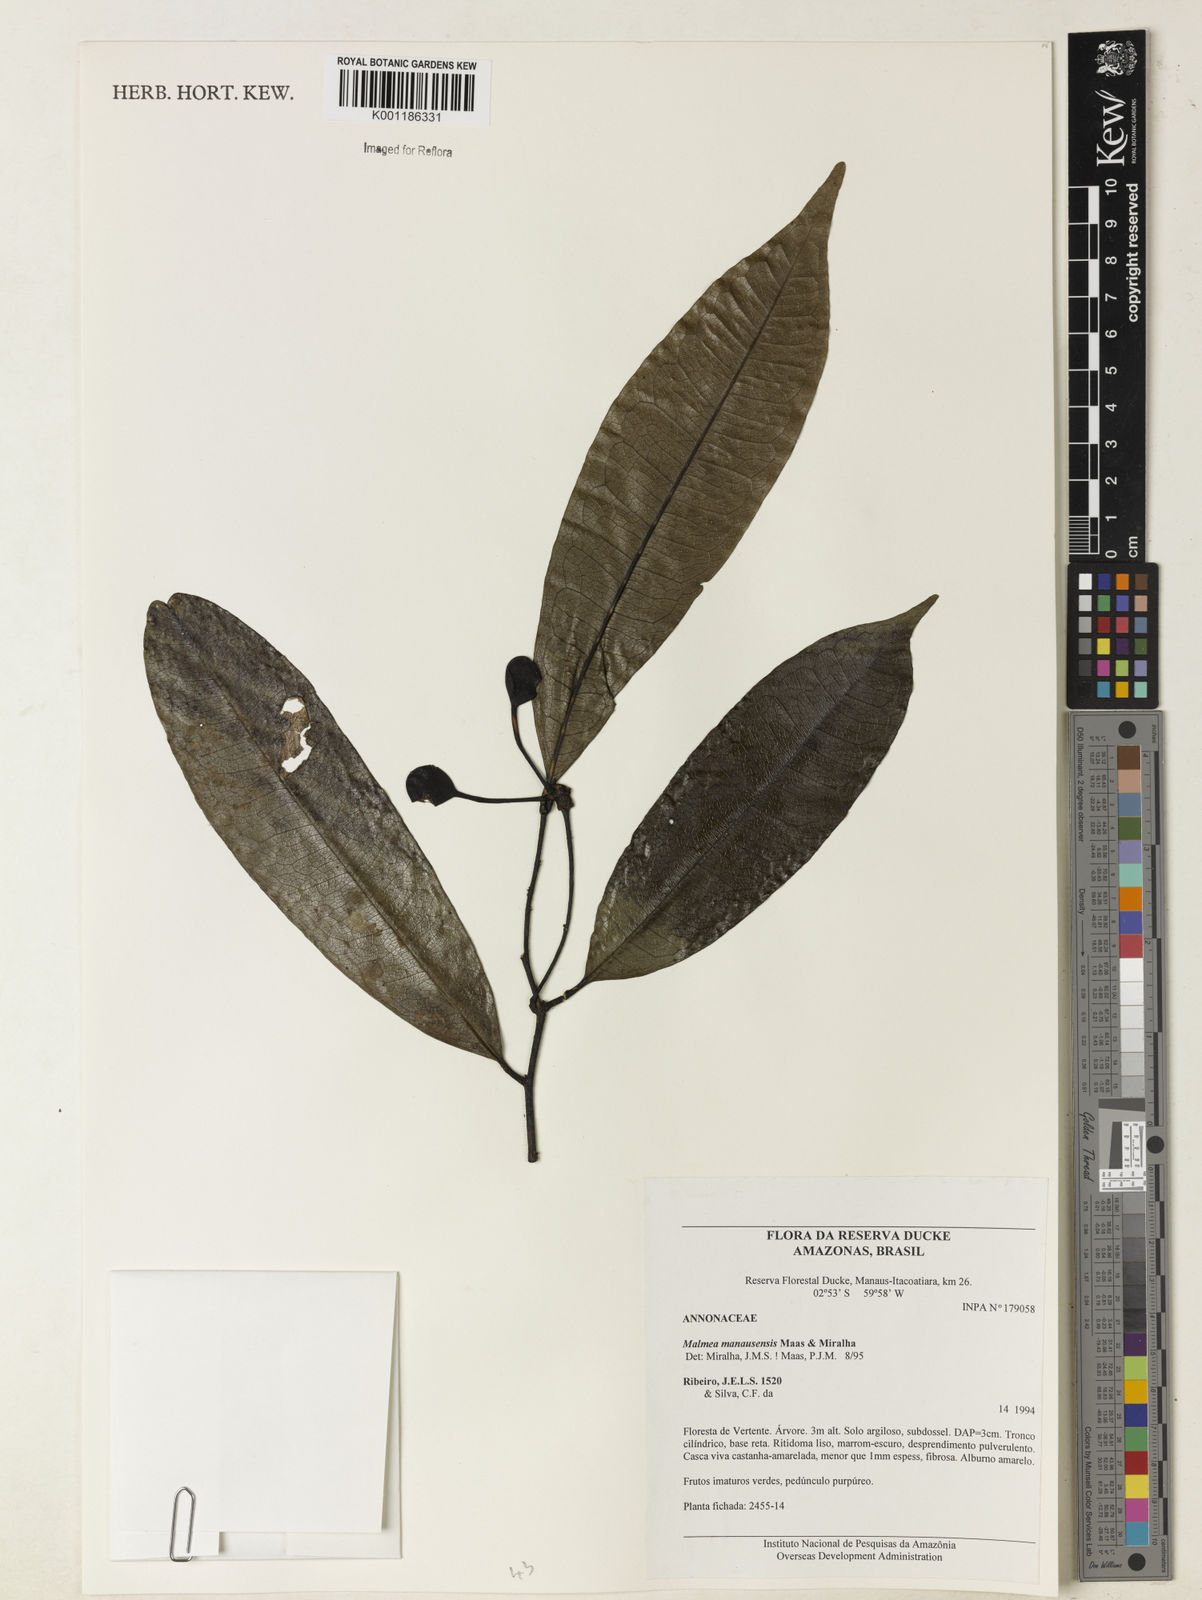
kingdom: Plantae
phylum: Tracheophyta
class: Magnoliopsida
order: Magnoliales
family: Annonaceae
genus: Malmea
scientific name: Malmea manausensis
